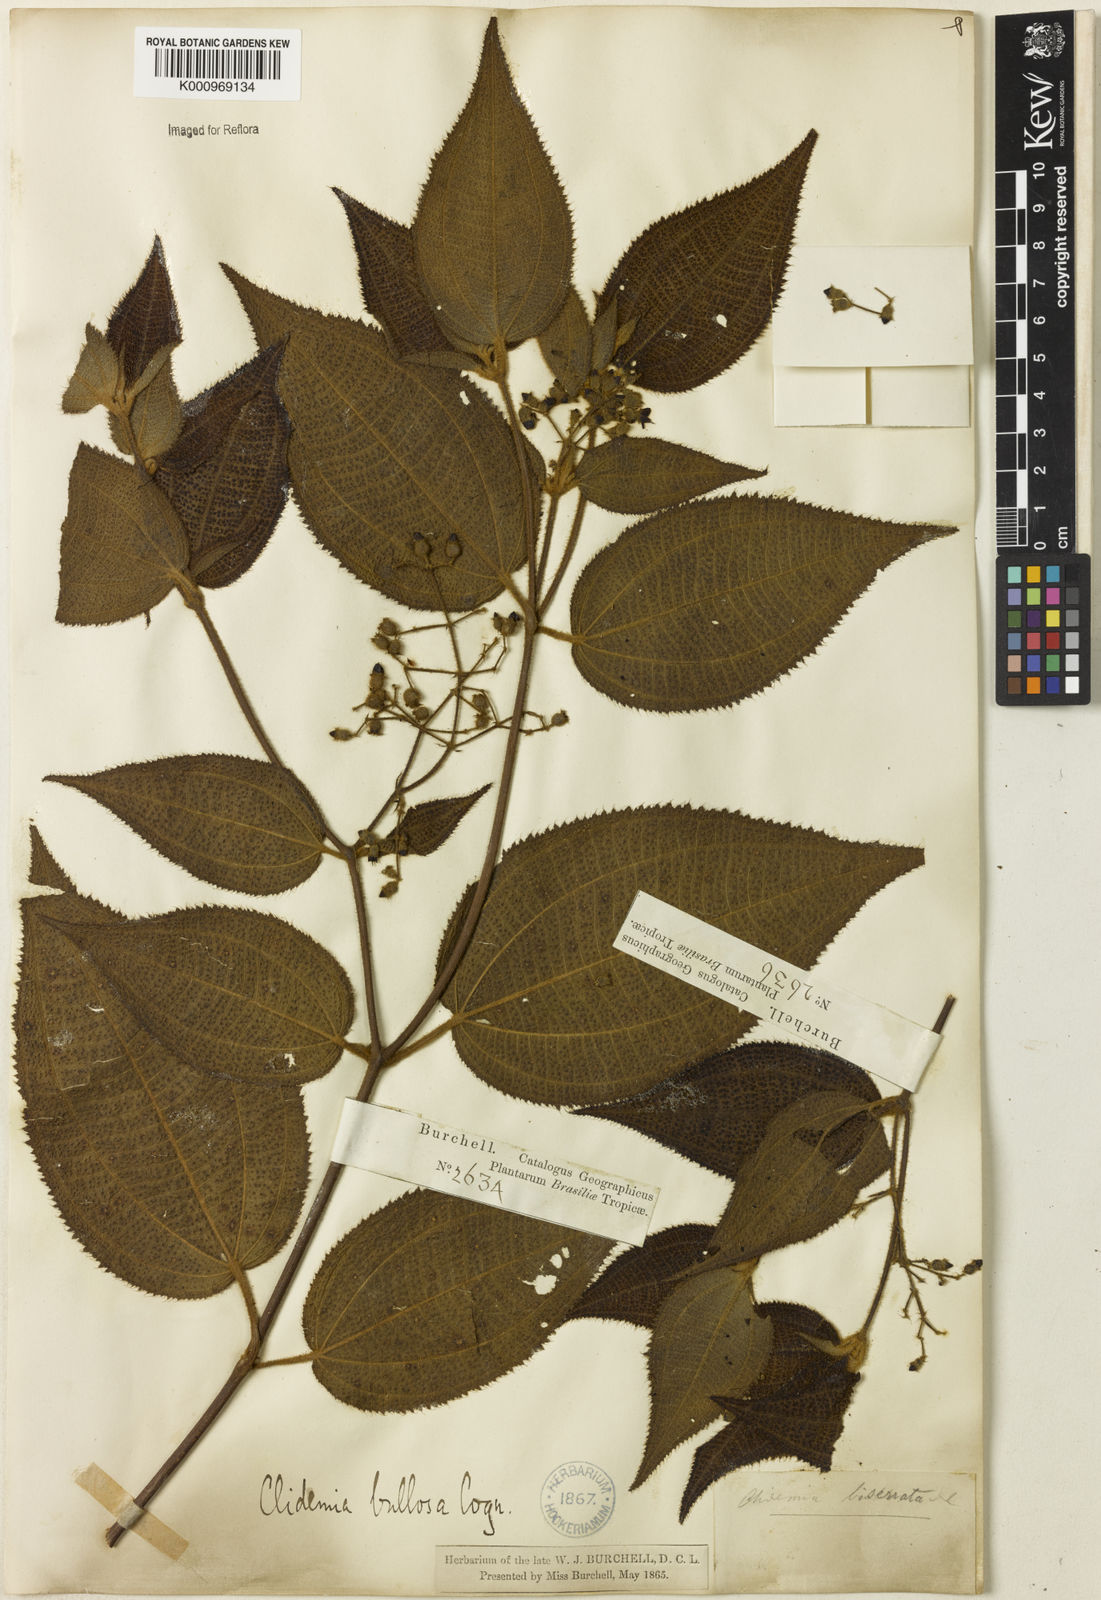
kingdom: Plantae
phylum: Tracheophyta
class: Magnoliopsida
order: Myrtales
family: Melastomataceae
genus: Miconia
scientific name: Miconia biserrata
